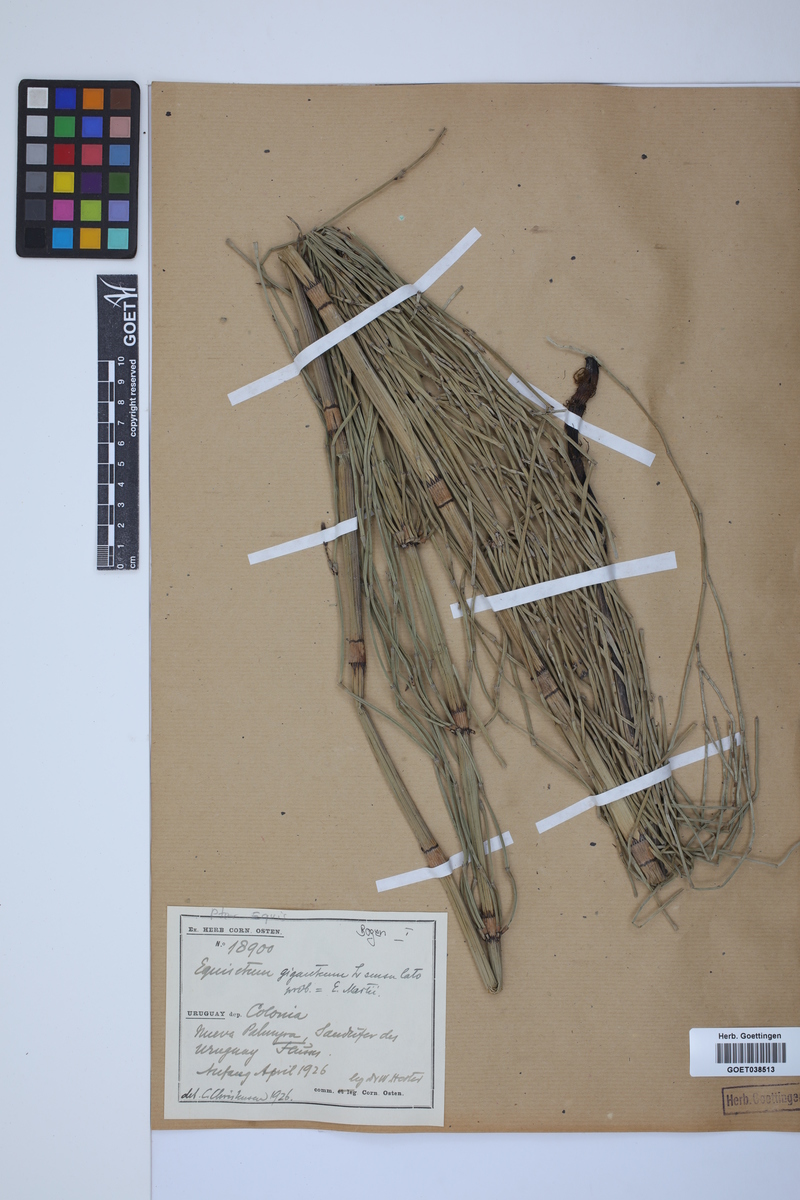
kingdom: Plantae
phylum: Tracheophyta
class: Polypodiopsida
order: Equisetales
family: Equisetaceae
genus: Equisetum
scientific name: Equisetum giganteum
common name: Giant horsetail
